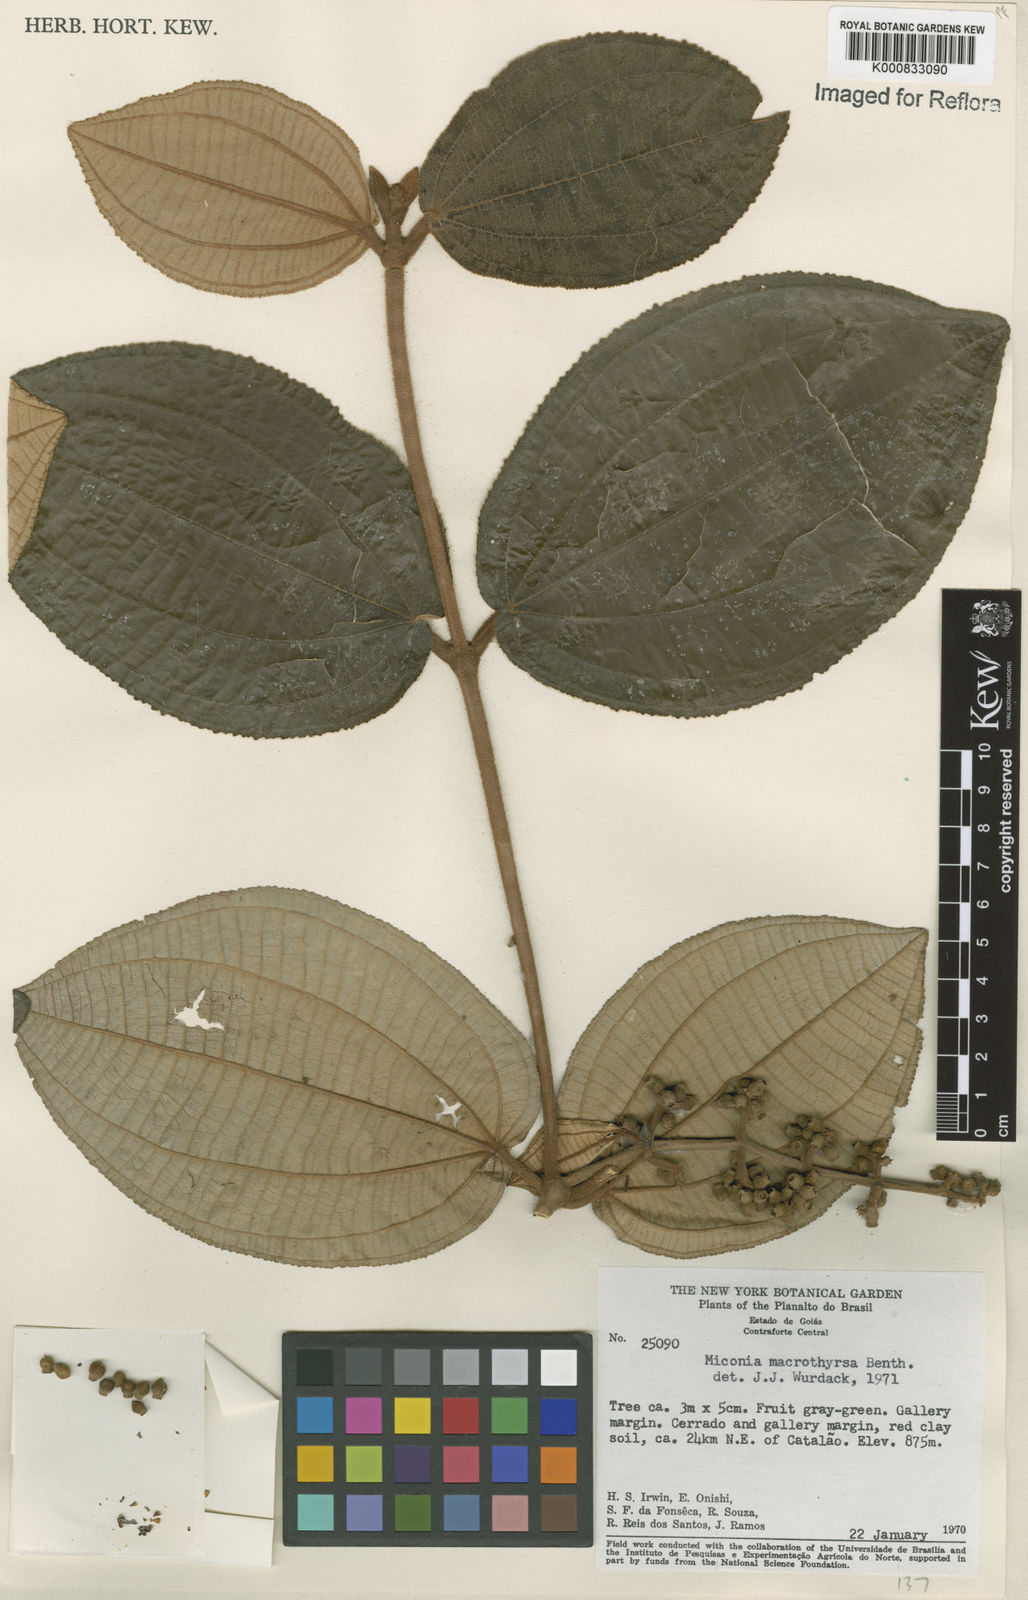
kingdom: Plantae
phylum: Tracheophyta
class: Magnoliopsida
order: Myrtales
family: Melastomataceae
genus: Miconia
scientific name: Miconia macrothyrsa
